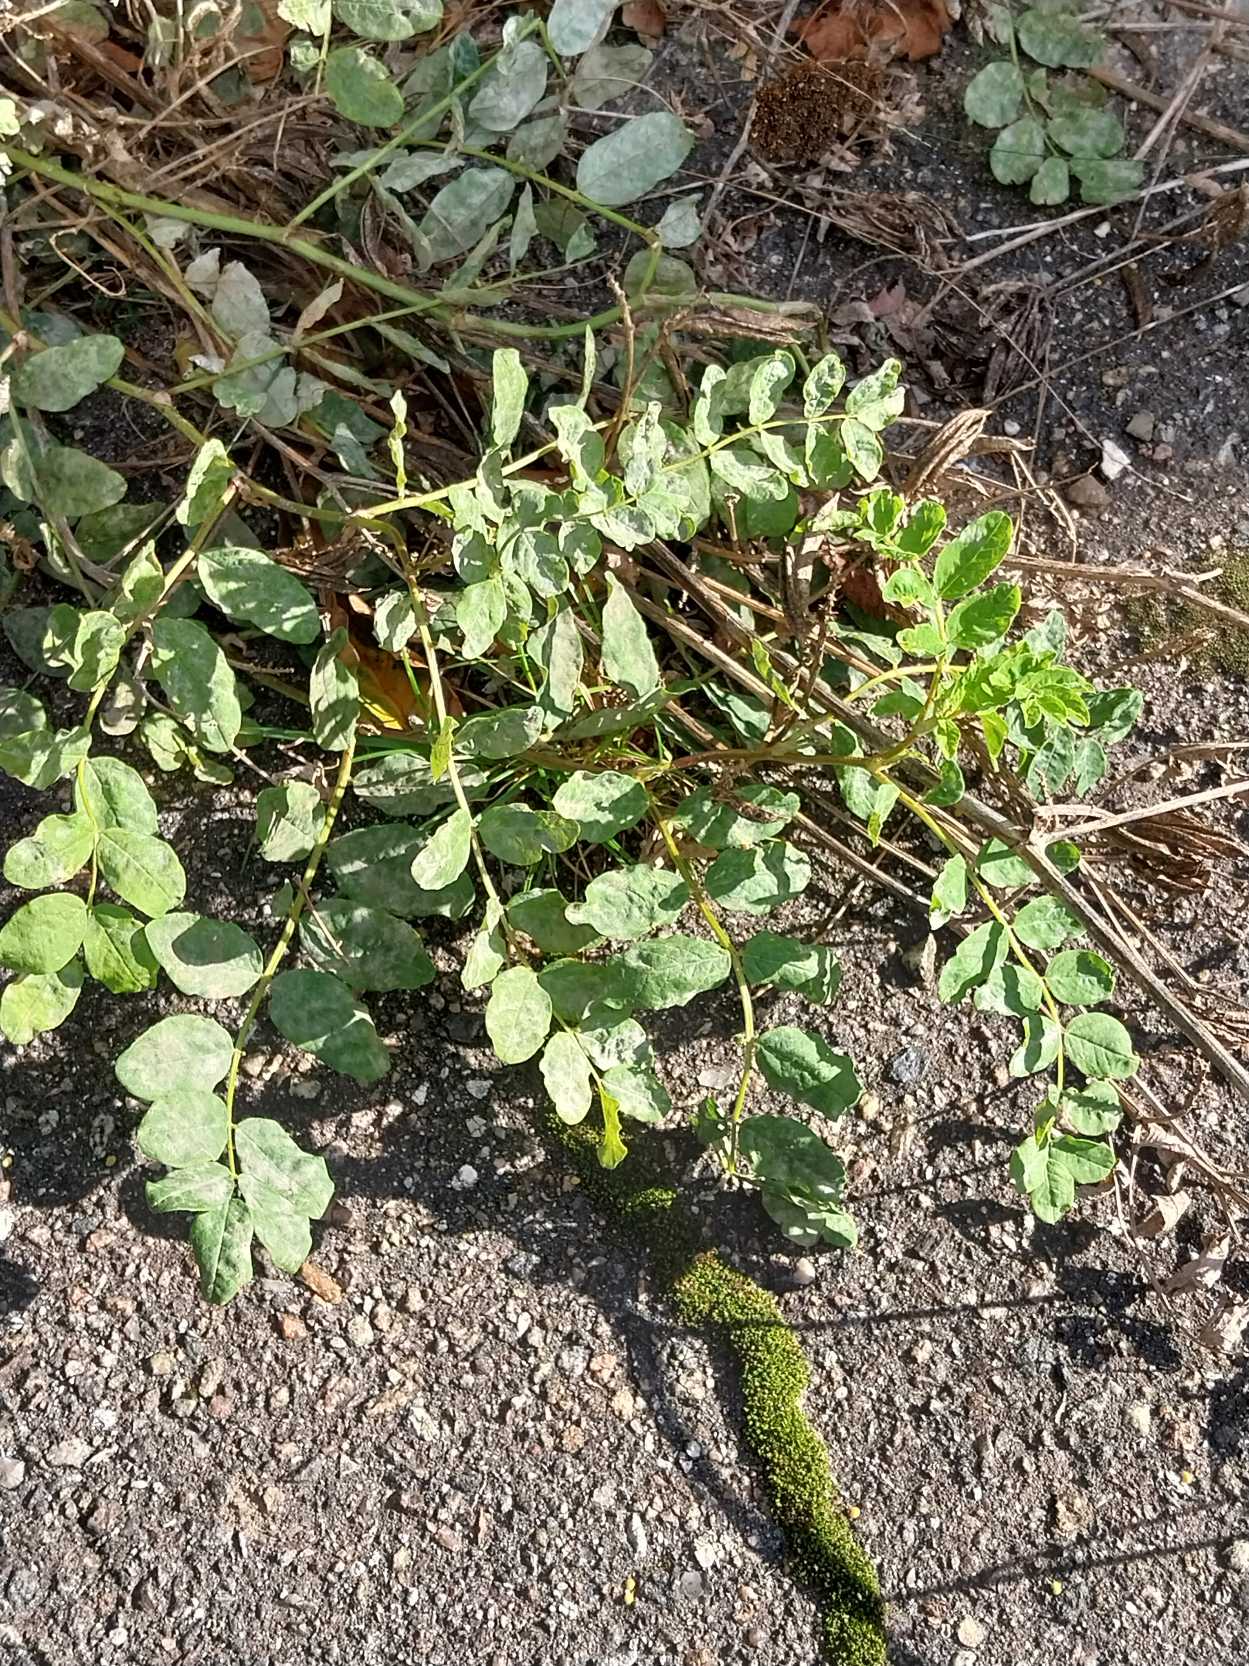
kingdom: Plantae
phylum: Tracheophyta
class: Magnoliopsida
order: Fabales
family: Fabaceae
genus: Astragalus
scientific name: Astragalus glycyphyllos
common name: Sød astragel
